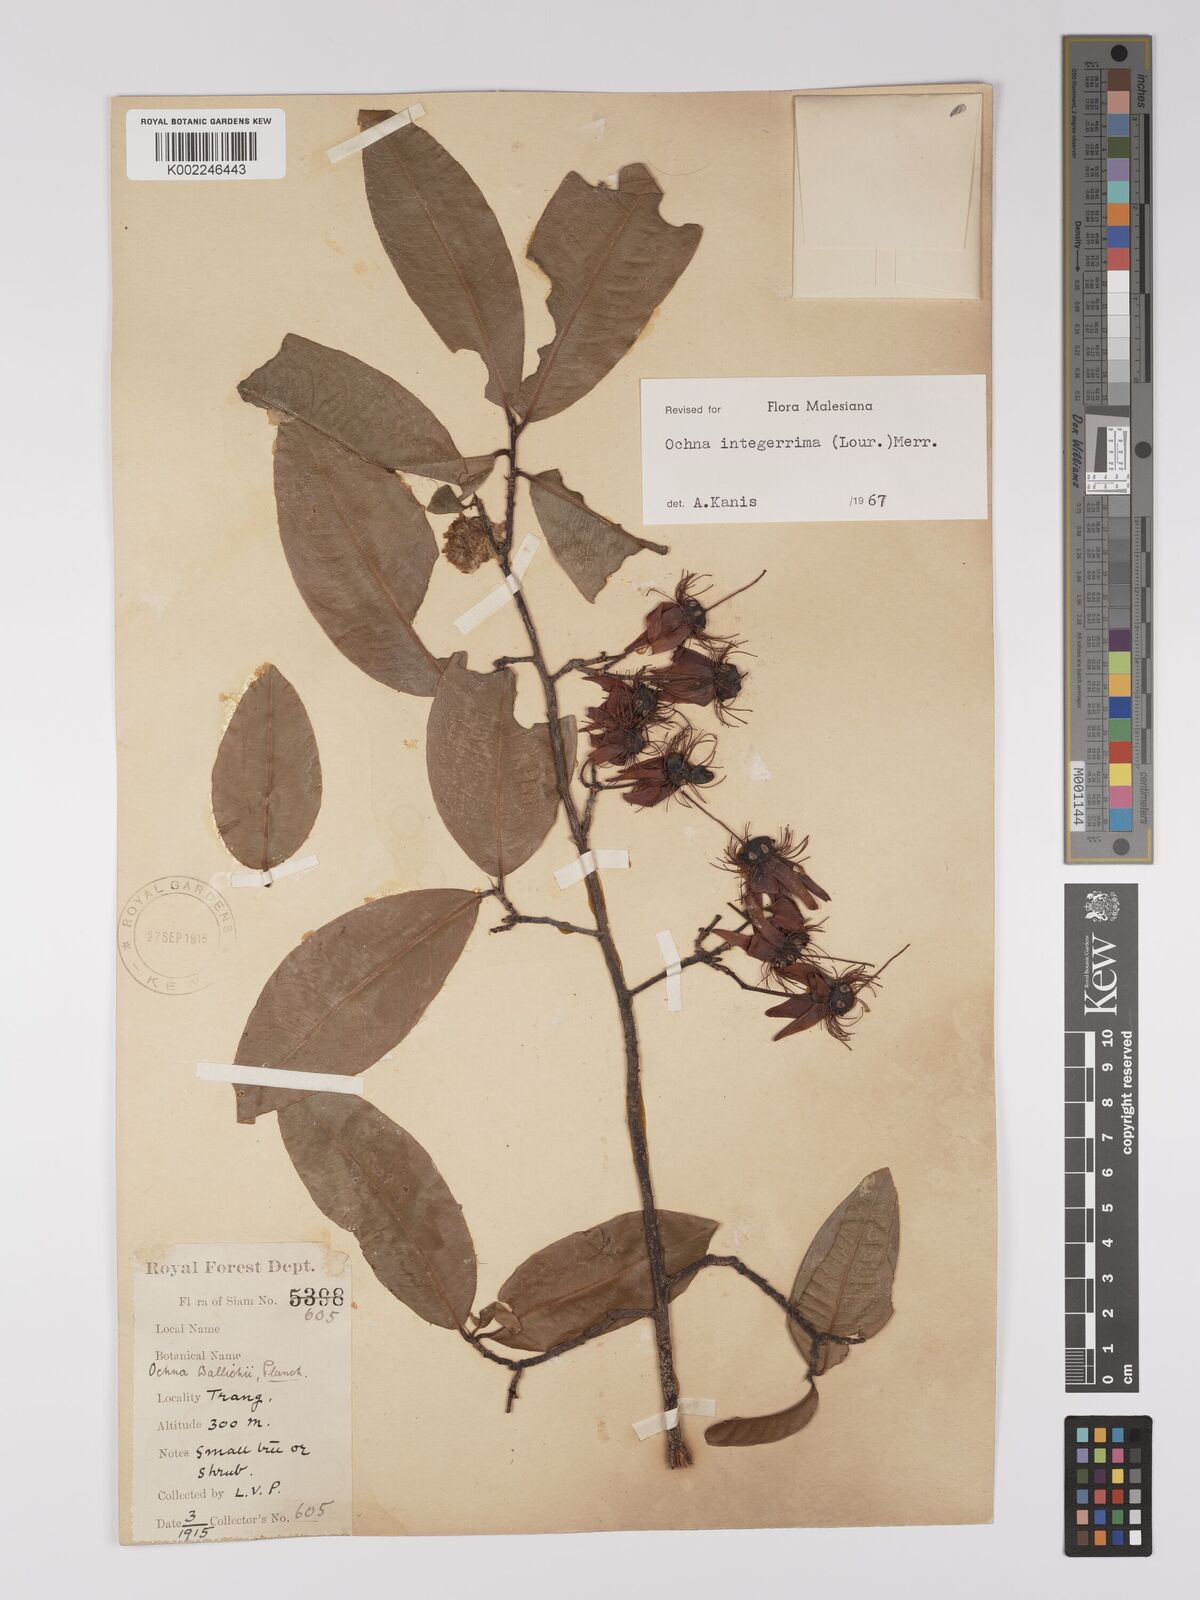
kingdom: Plantae
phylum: Tracheophyta
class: Magnoliopsida
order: Malpighiales
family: Ochnaceae
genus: Ochna
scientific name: Ochna integerrima
